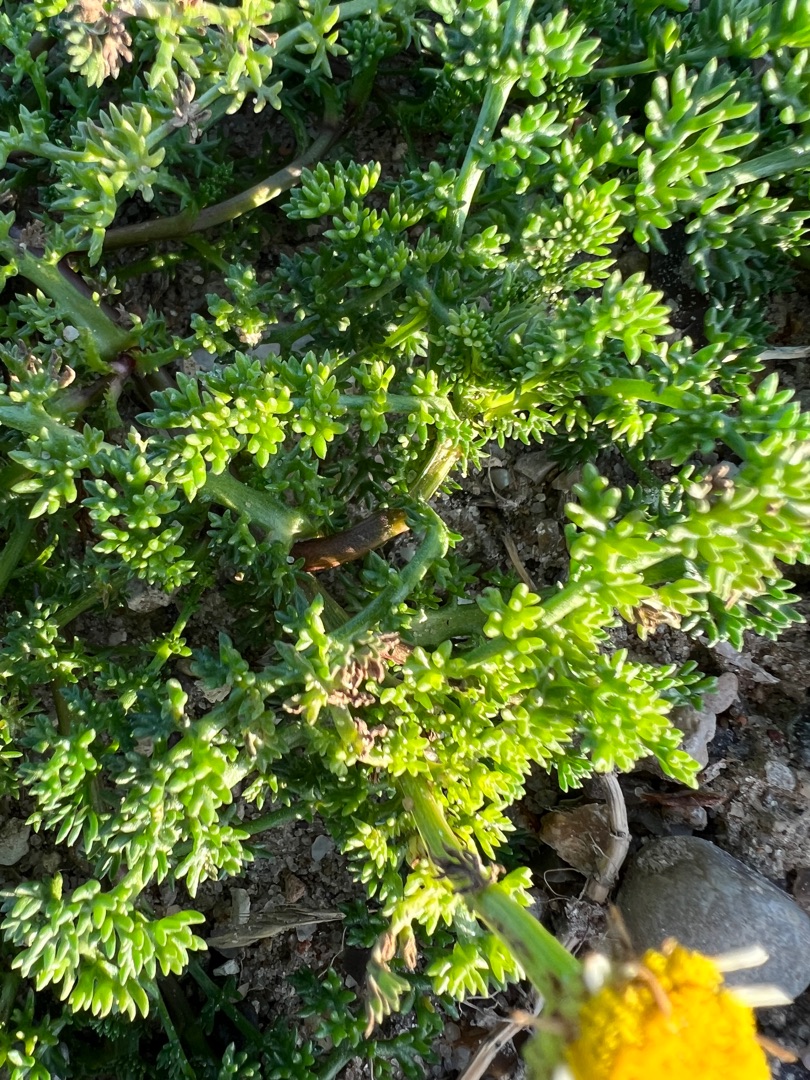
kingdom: Plantae
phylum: Tracheophyta
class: Magnoliopsida
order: Asterales
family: Asteraceae
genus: Tripleurospermum
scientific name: Tripleurospermum maritimum
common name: Strand-kamille
